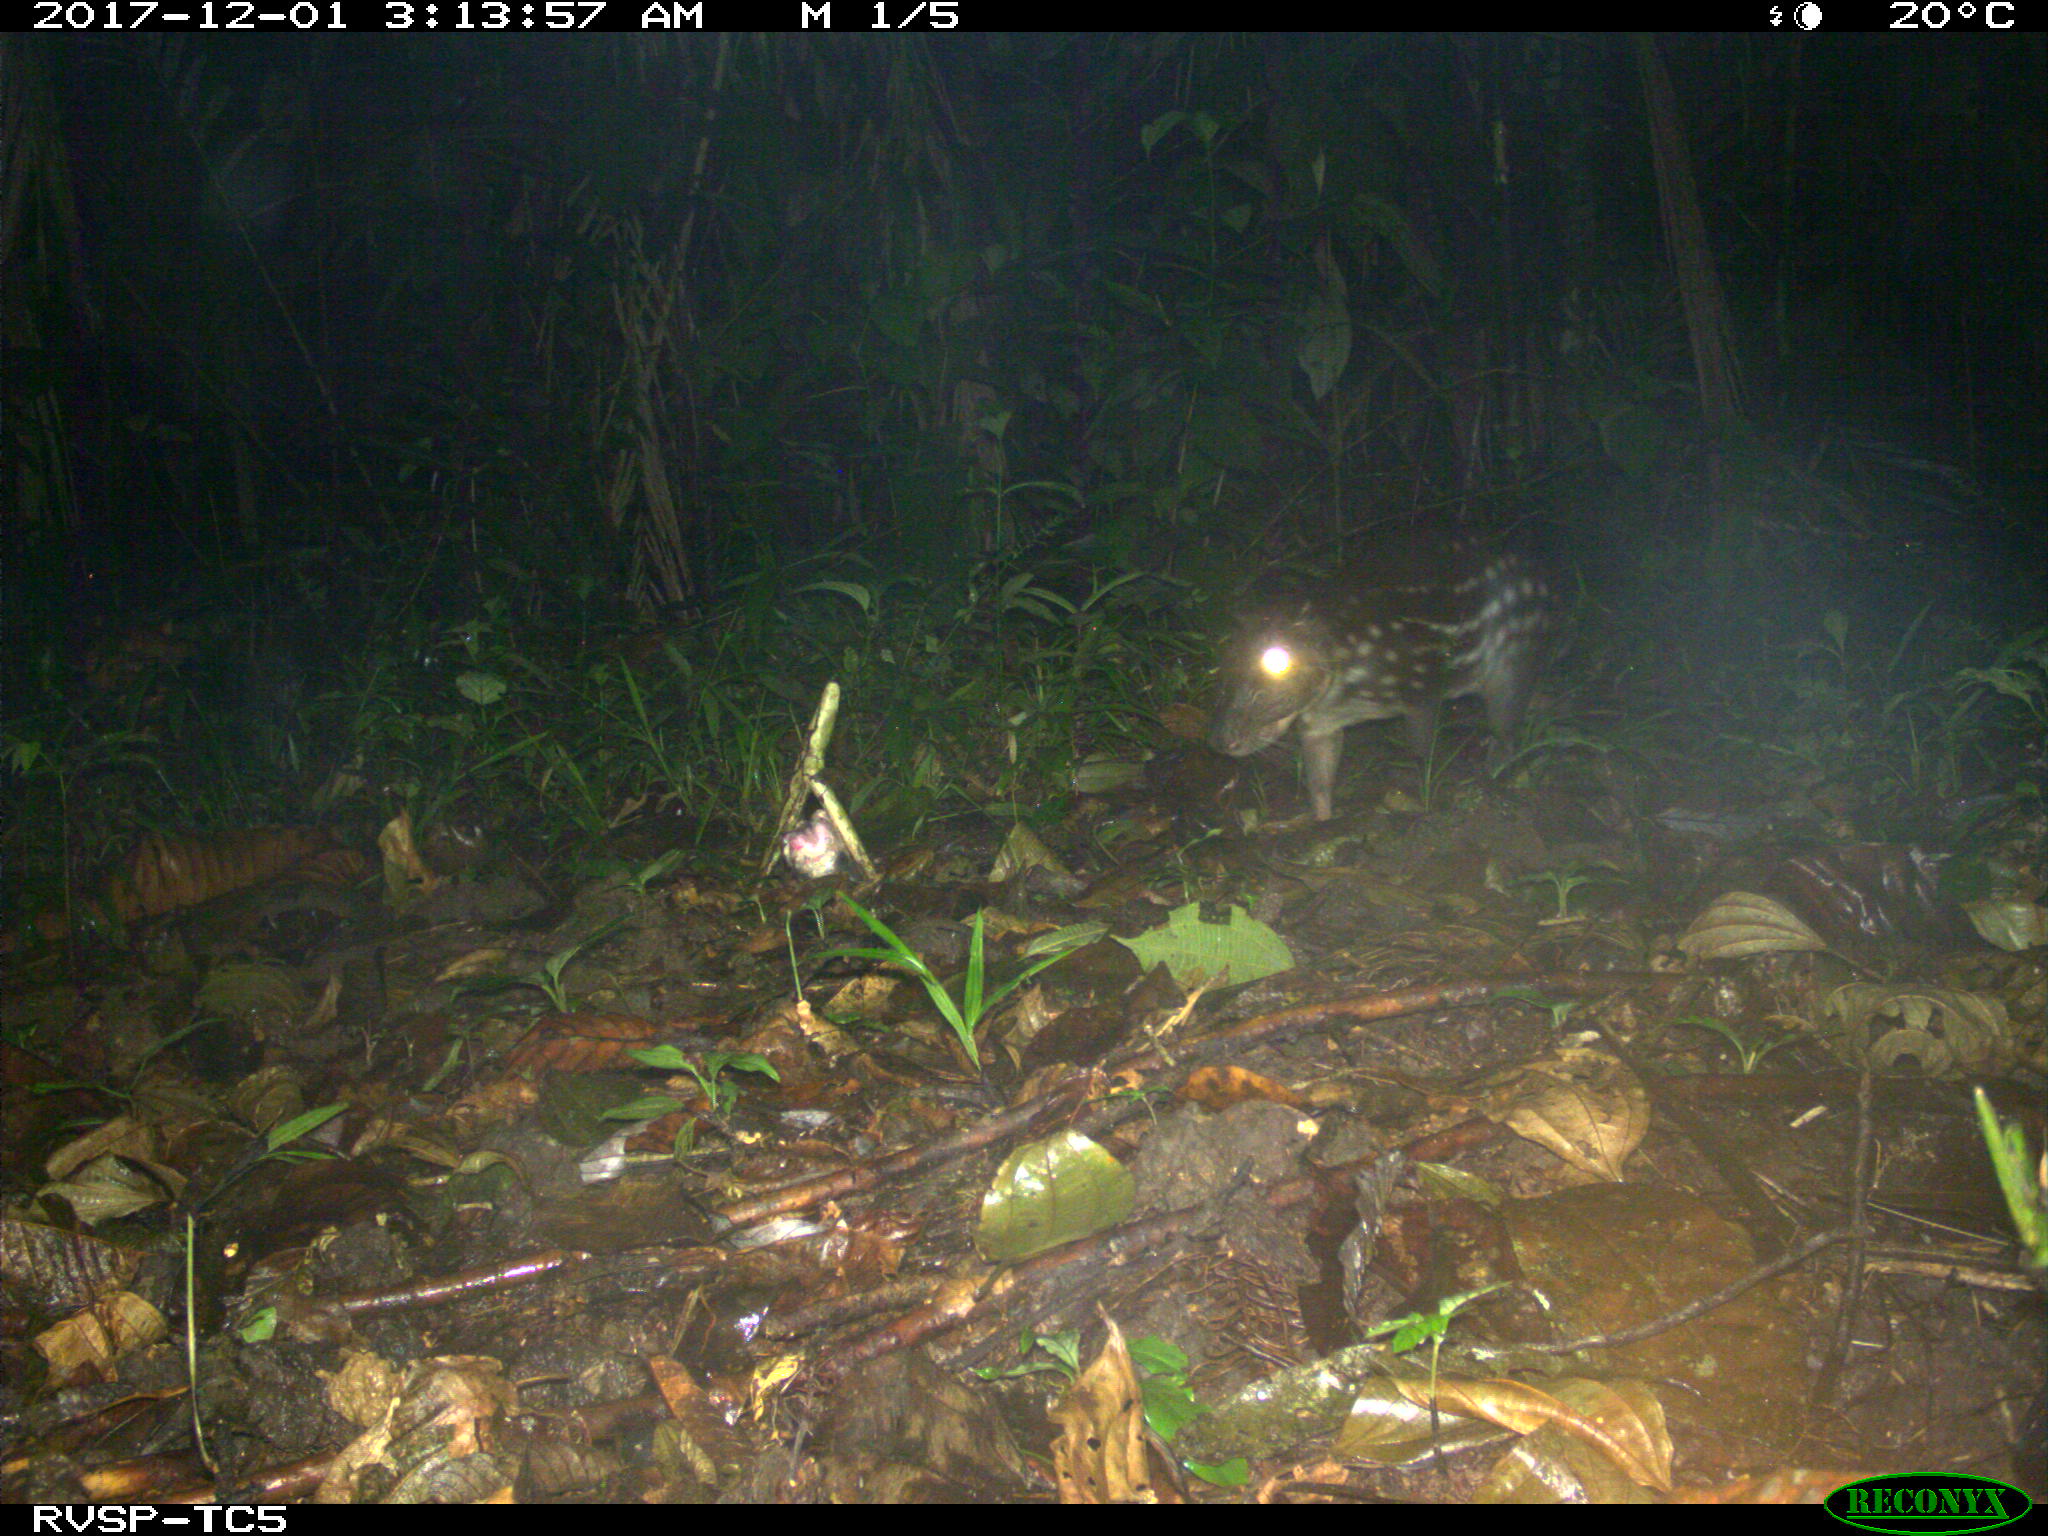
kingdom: Animalia
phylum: Chordata
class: Mammalia
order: Rodentia
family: Cuniculidae
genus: Cuniculus
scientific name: Cuniculus paca
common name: Lowland paca
